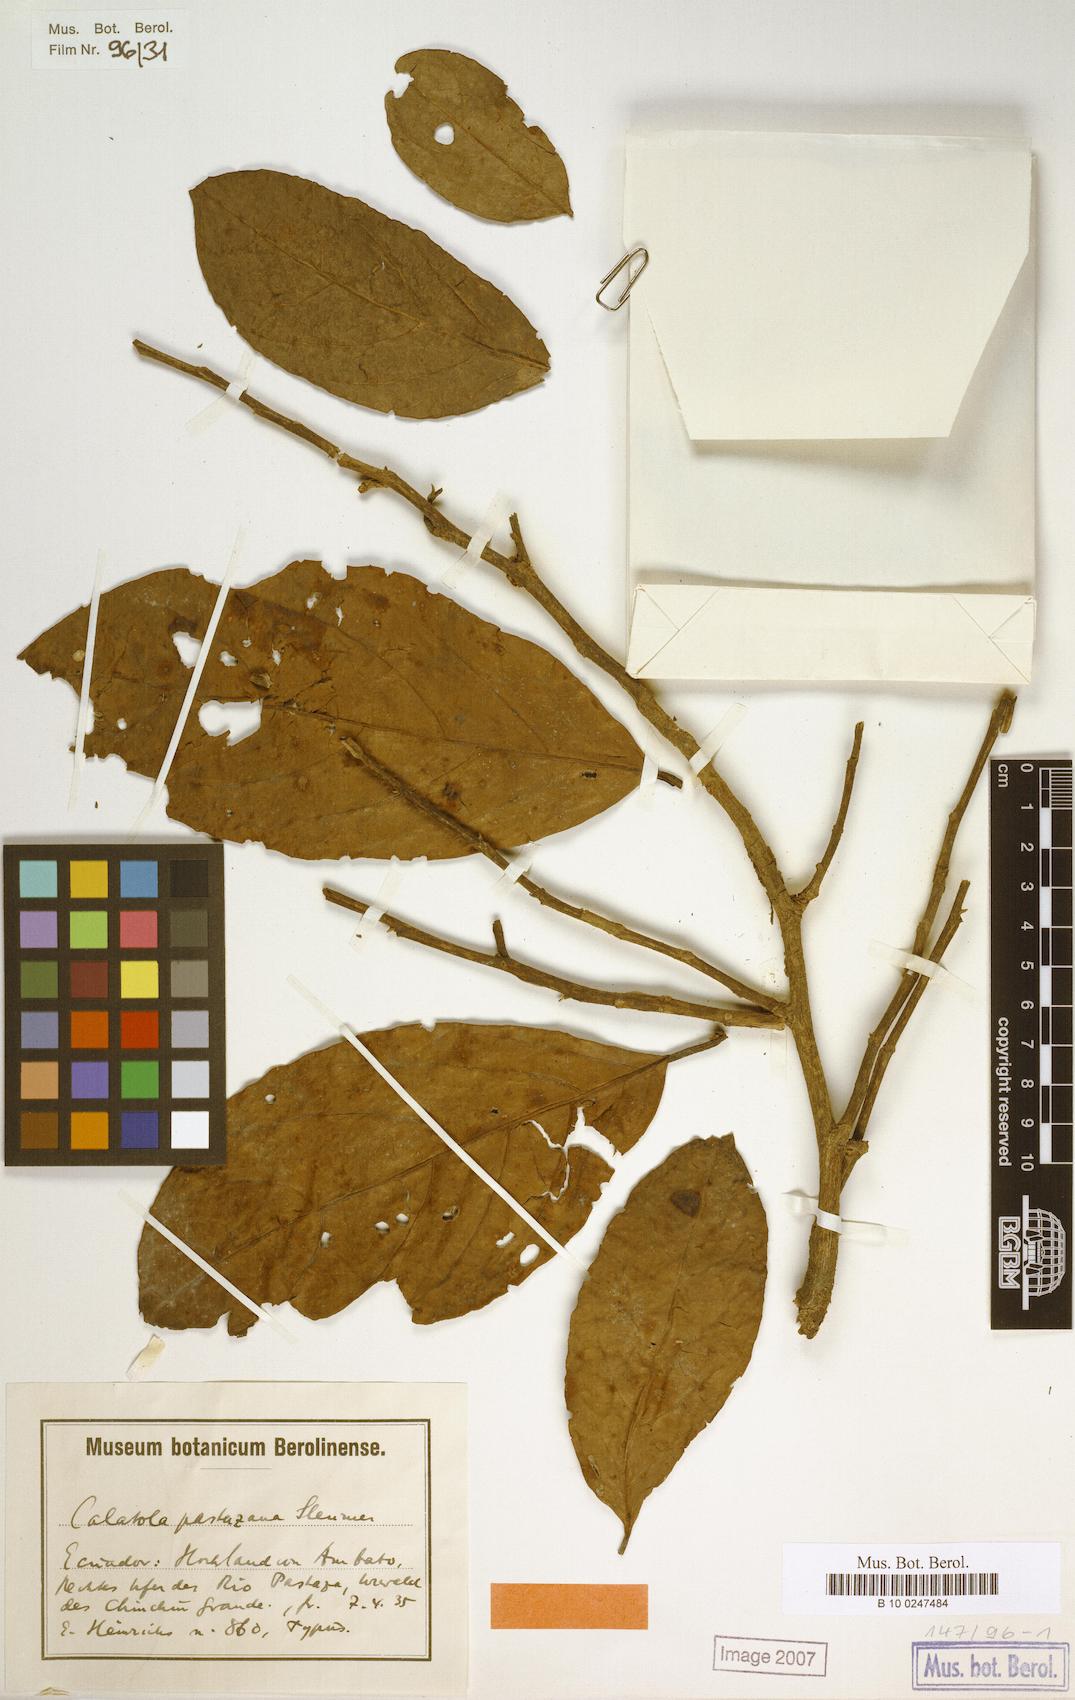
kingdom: Plantae
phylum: Tracheophyta
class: Magnoliopsida
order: Metteniusales
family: Metteniusaceae
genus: Calatola
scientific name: Calatola costaricensis
